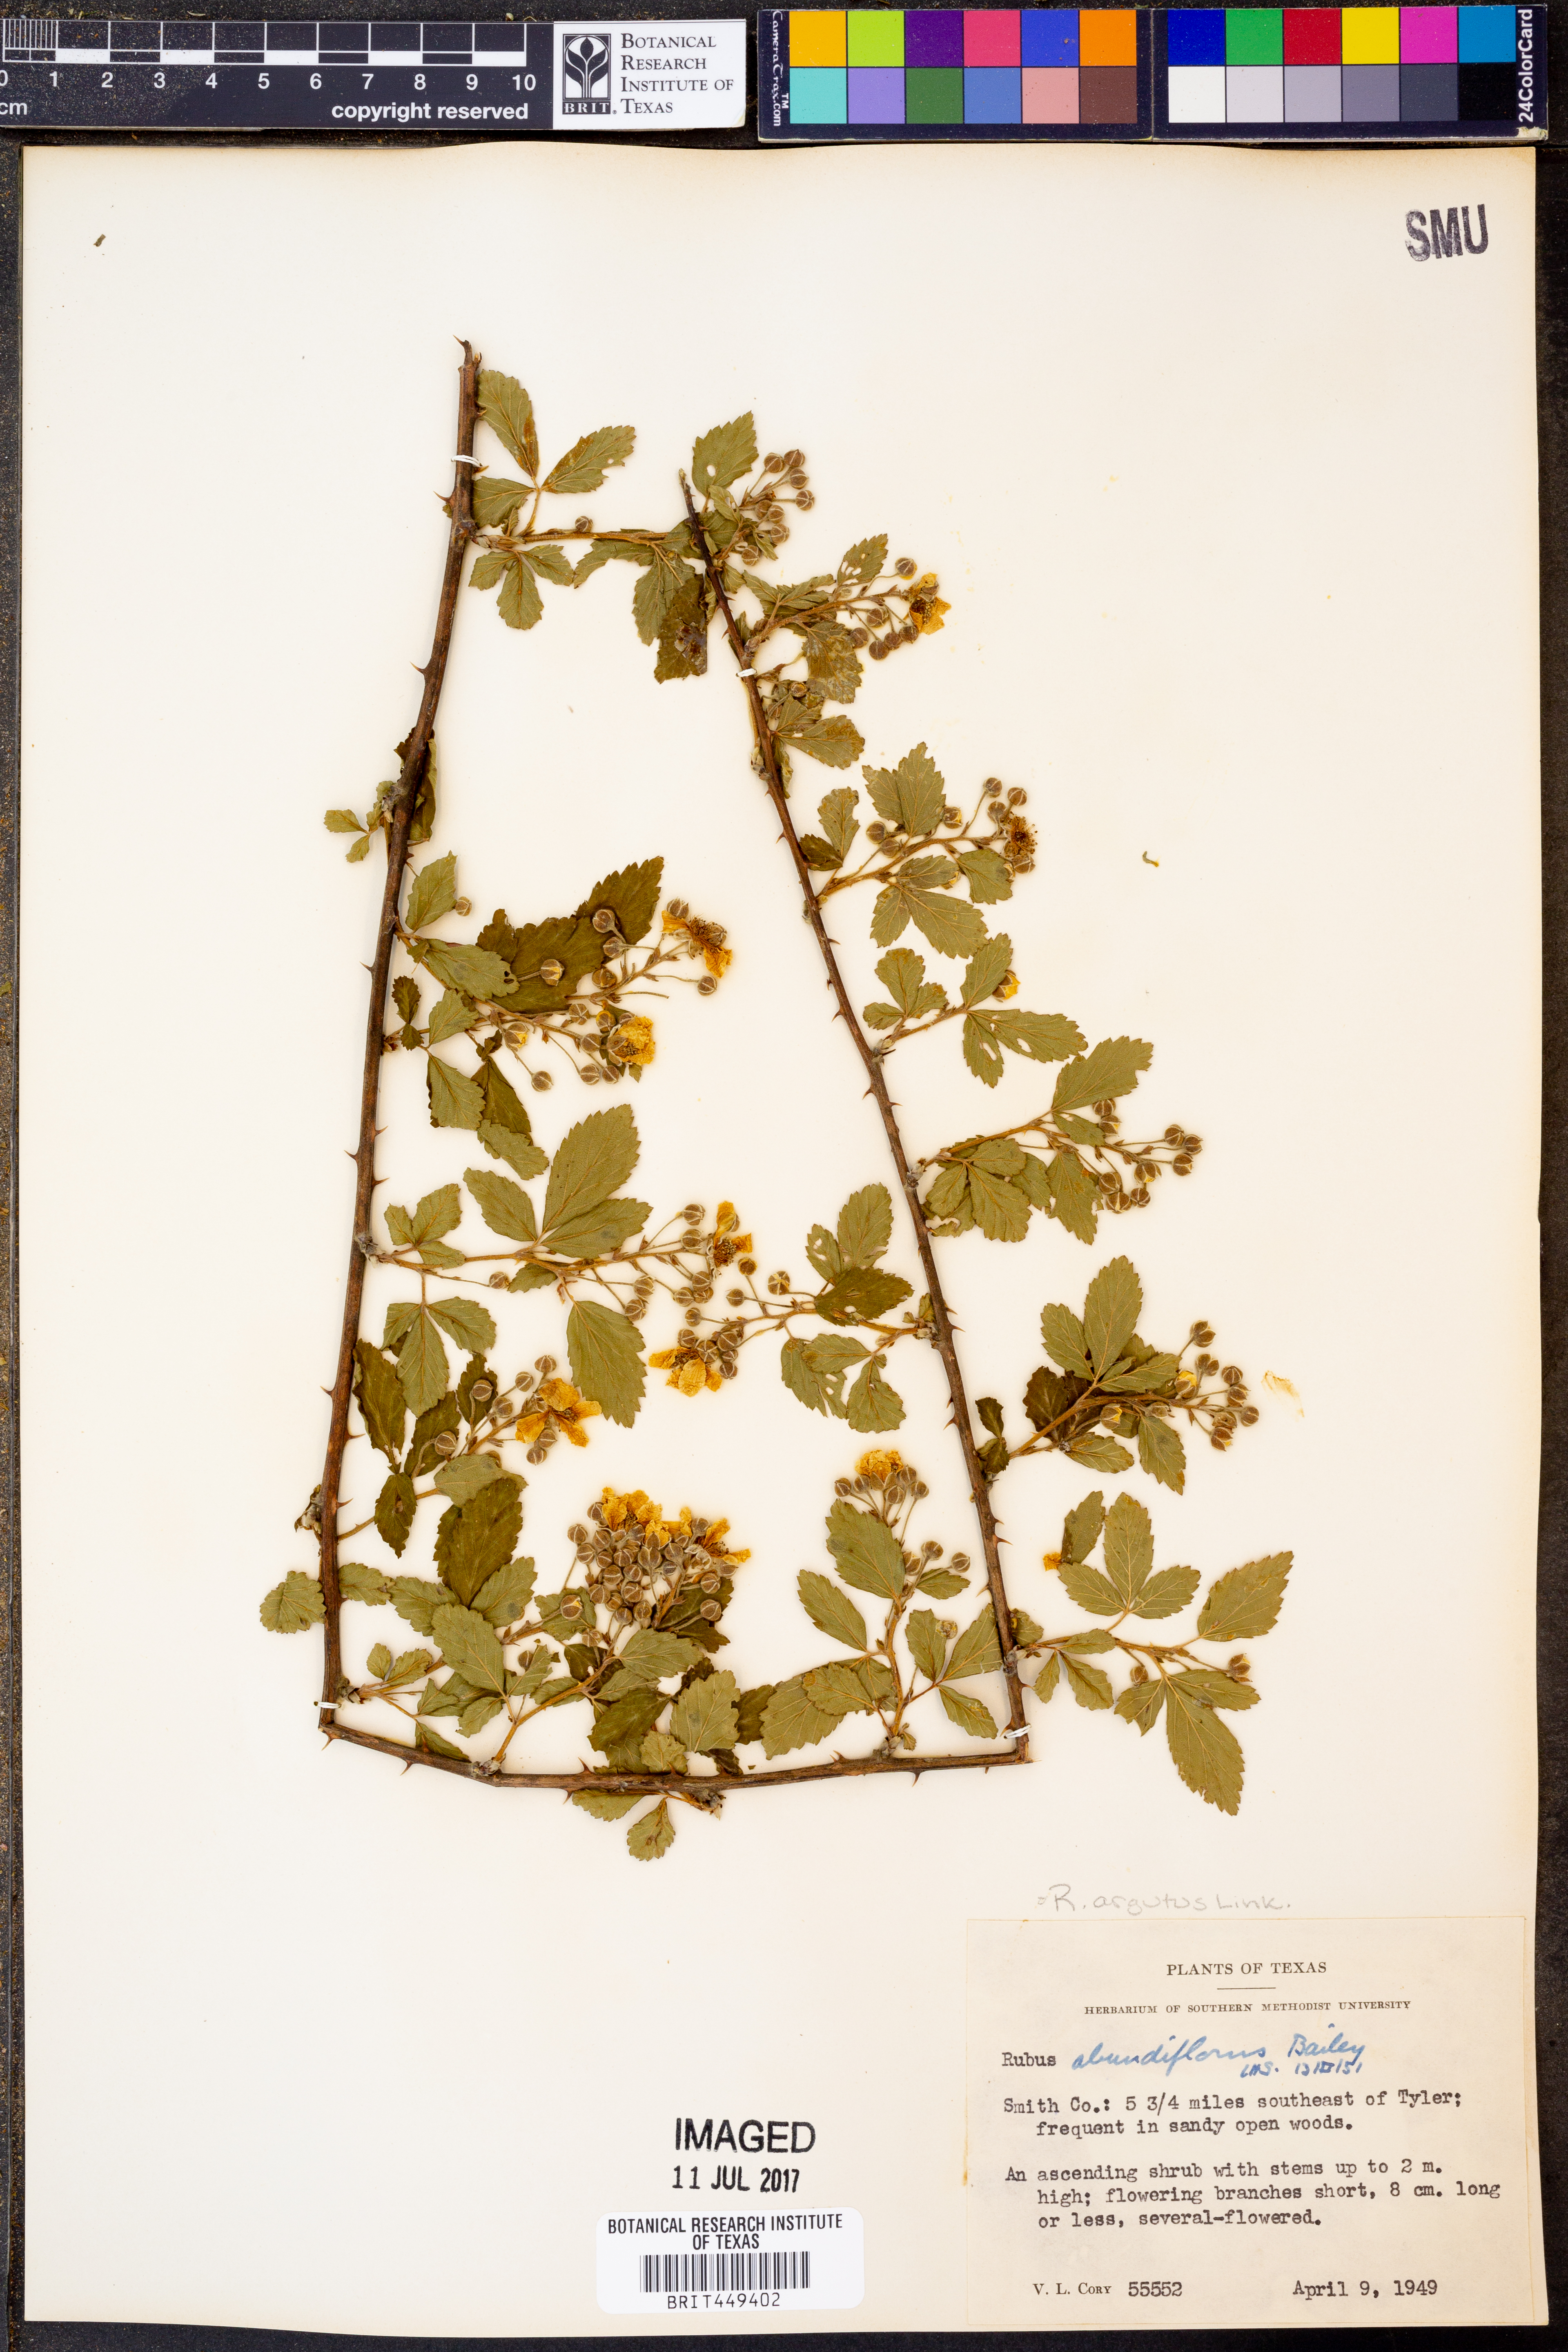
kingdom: Plantae
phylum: Tracheophyta
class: Magnoliopsida
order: Rosales
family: Rosaceae
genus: Rubus
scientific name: Rubus argutus
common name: Sawtooth blackberry
